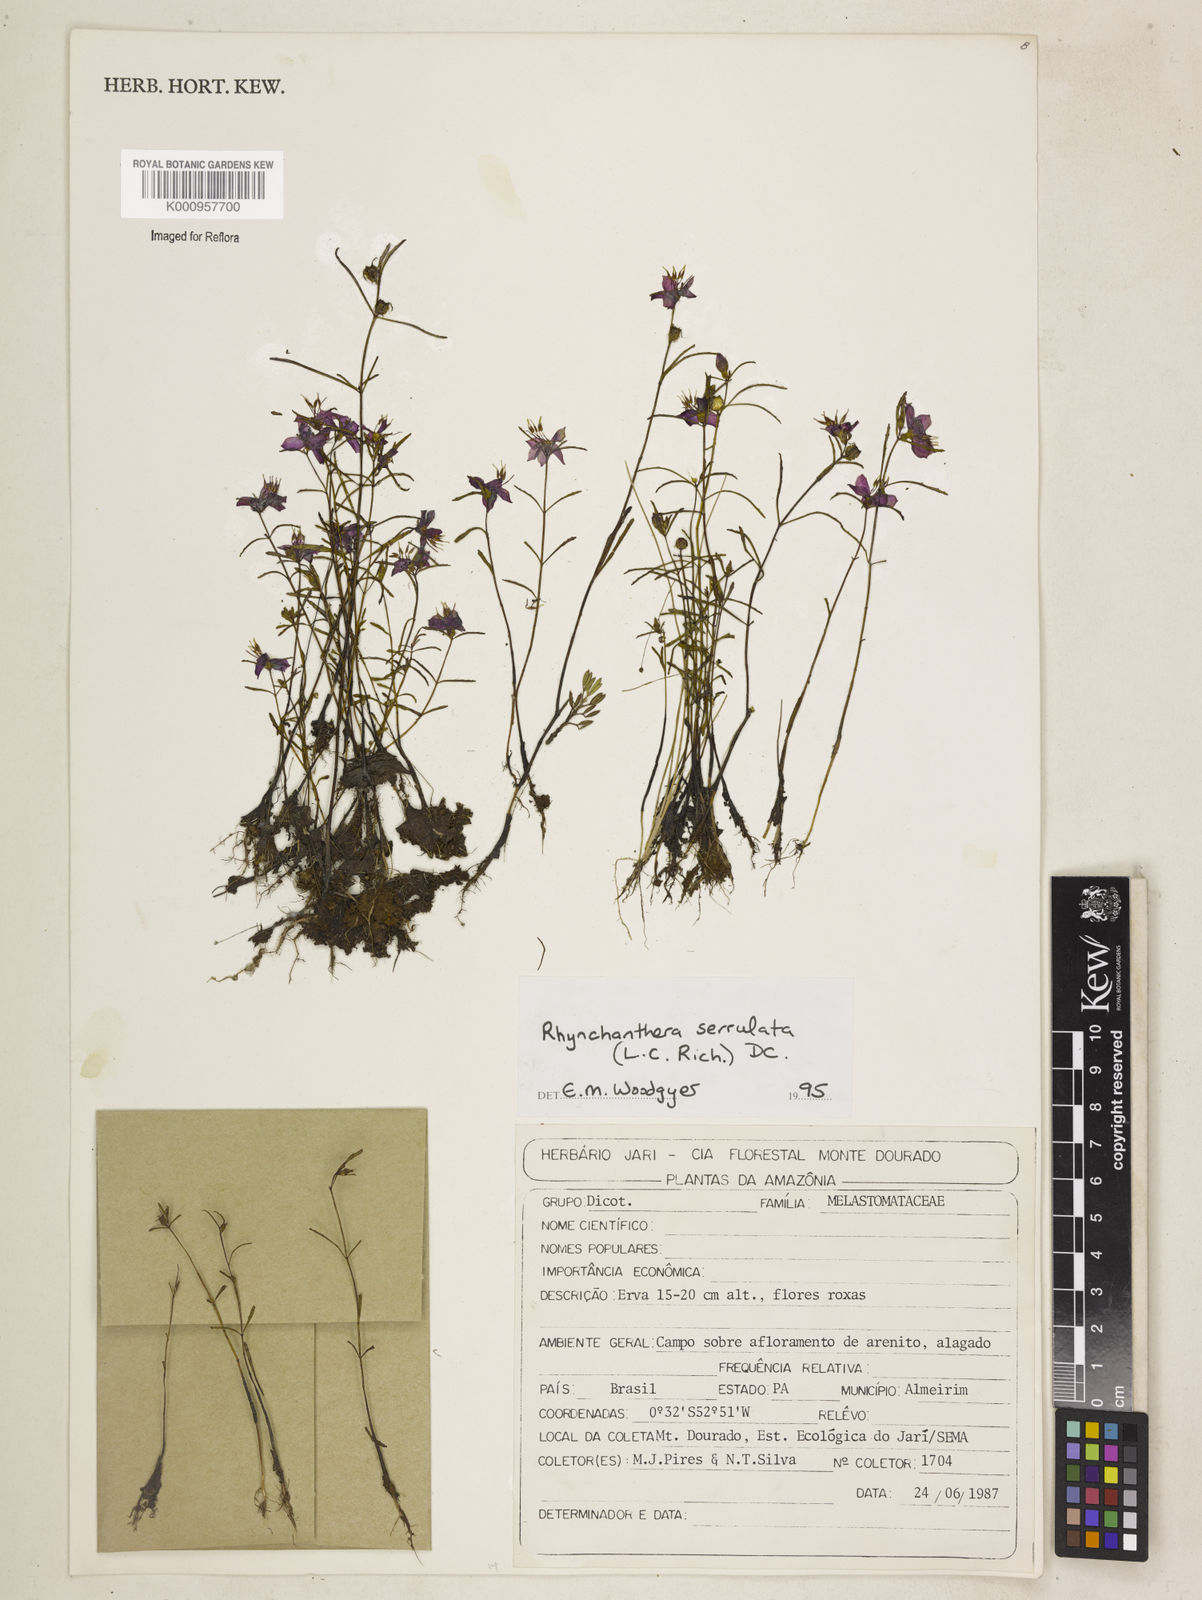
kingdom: Plantae
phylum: Tracheophyta
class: Magnoliopsida
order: Myrtales
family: Melastomataceae
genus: Rhynchanthera
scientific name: Rhynchanthera serrulata
